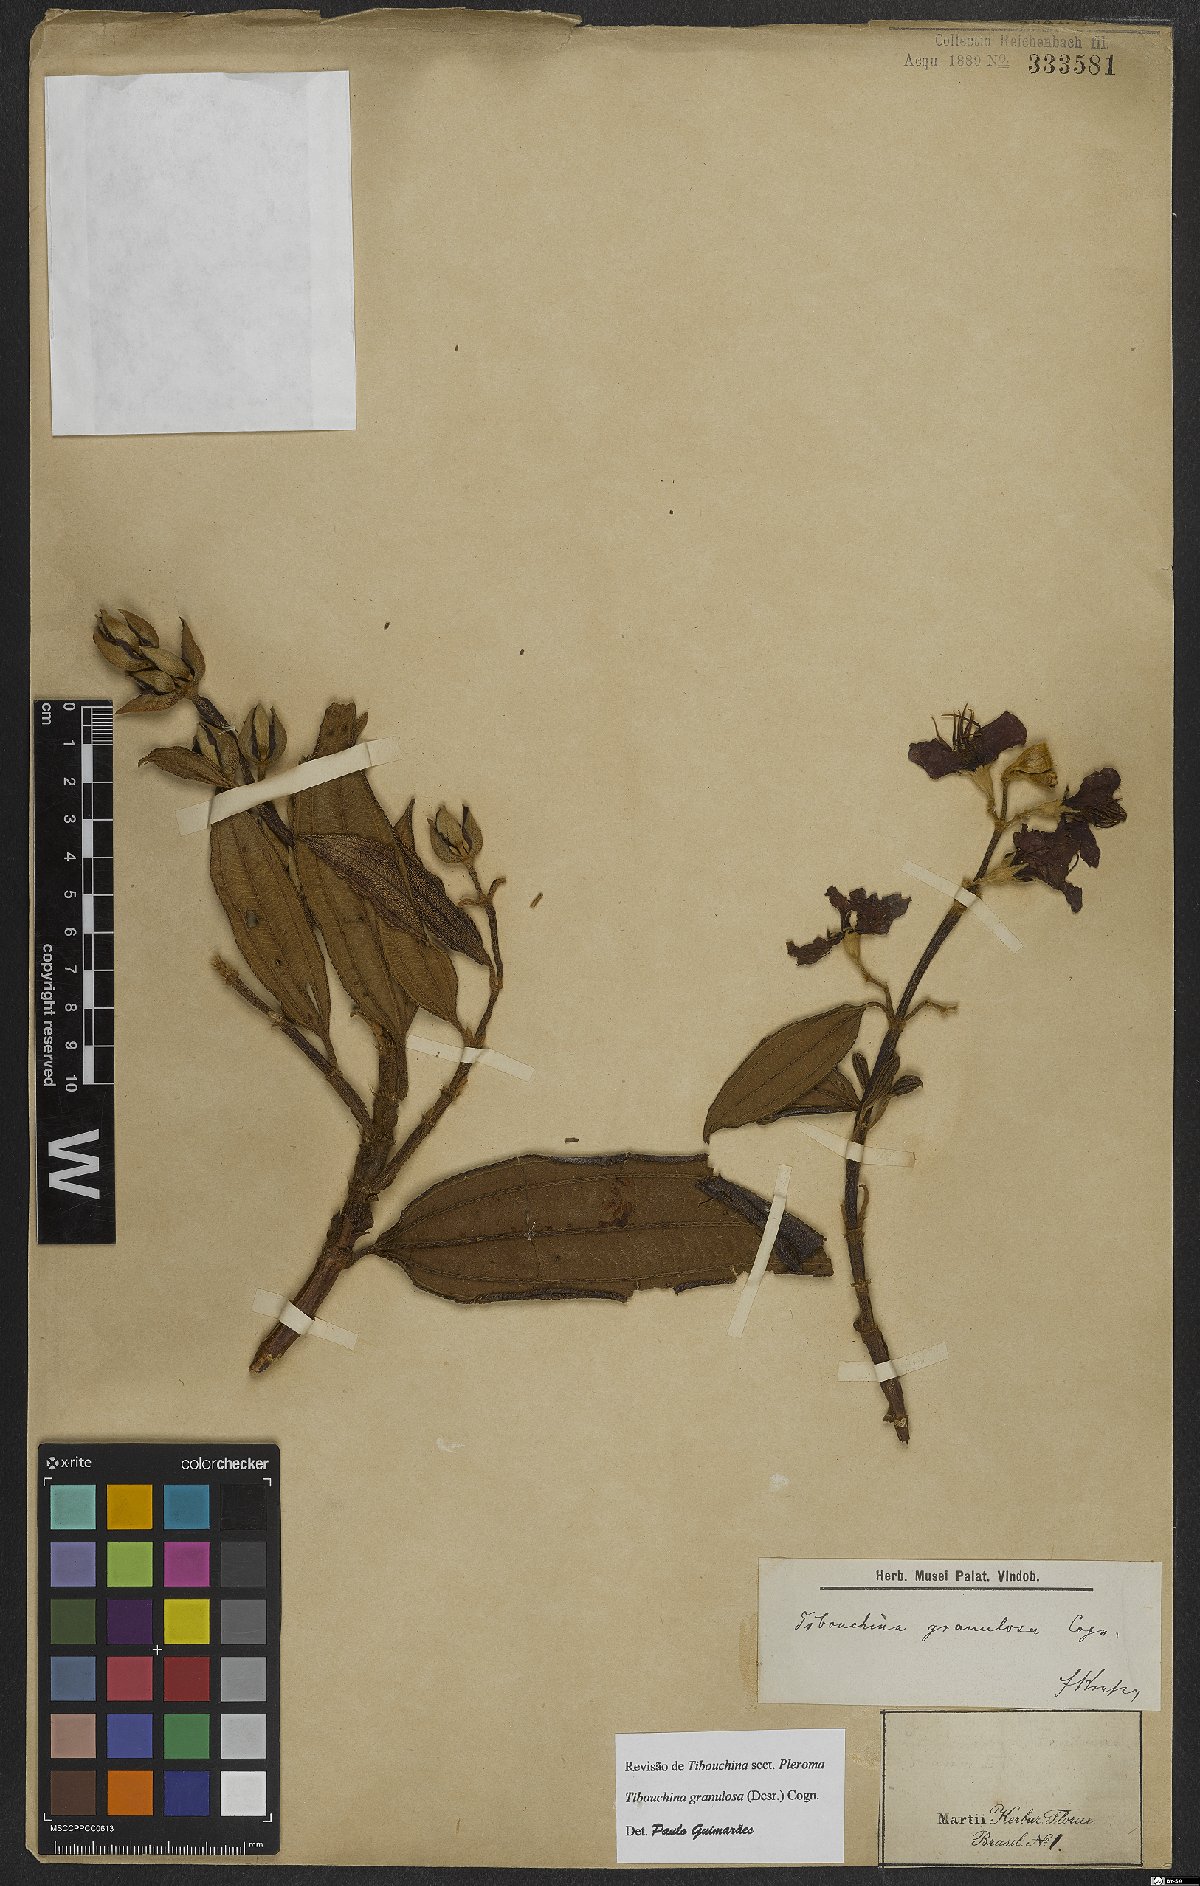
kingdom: Plantae
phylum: Tracheophyta
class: Magnoliopsida
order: Myrtales
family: Melastomataceae
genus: Pleroma
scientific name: Pleroma granulosum
